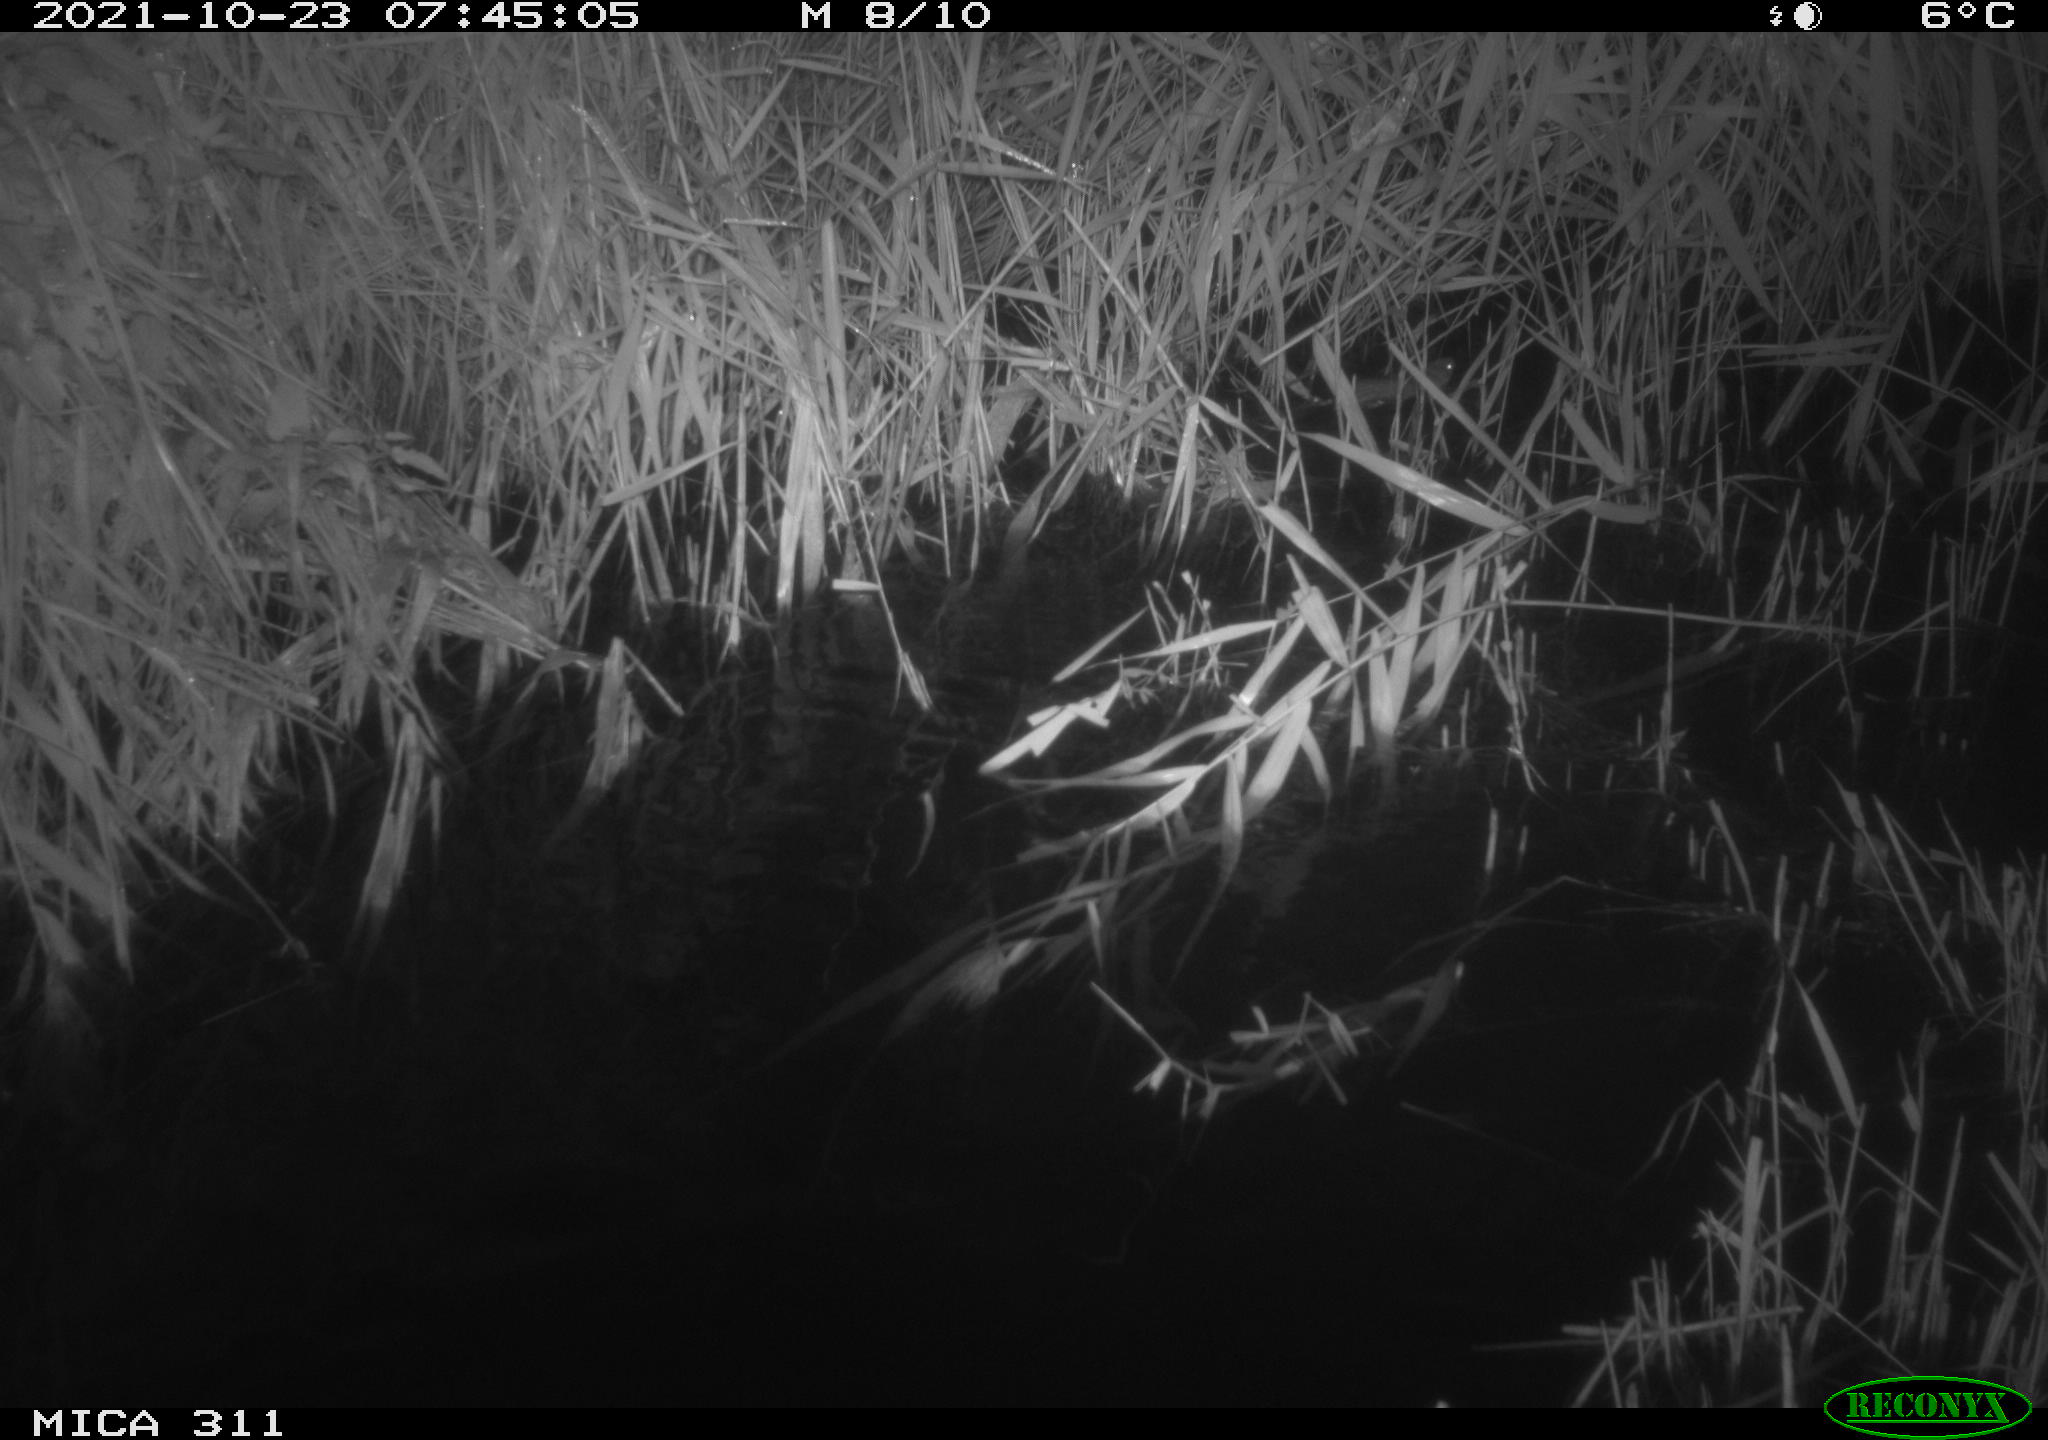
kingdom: Animalia
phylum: Chordata
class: Mammalia
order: Rodentia
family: Muridae
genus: Rattus
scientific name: Rattus norvegicus
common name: Brown rat
